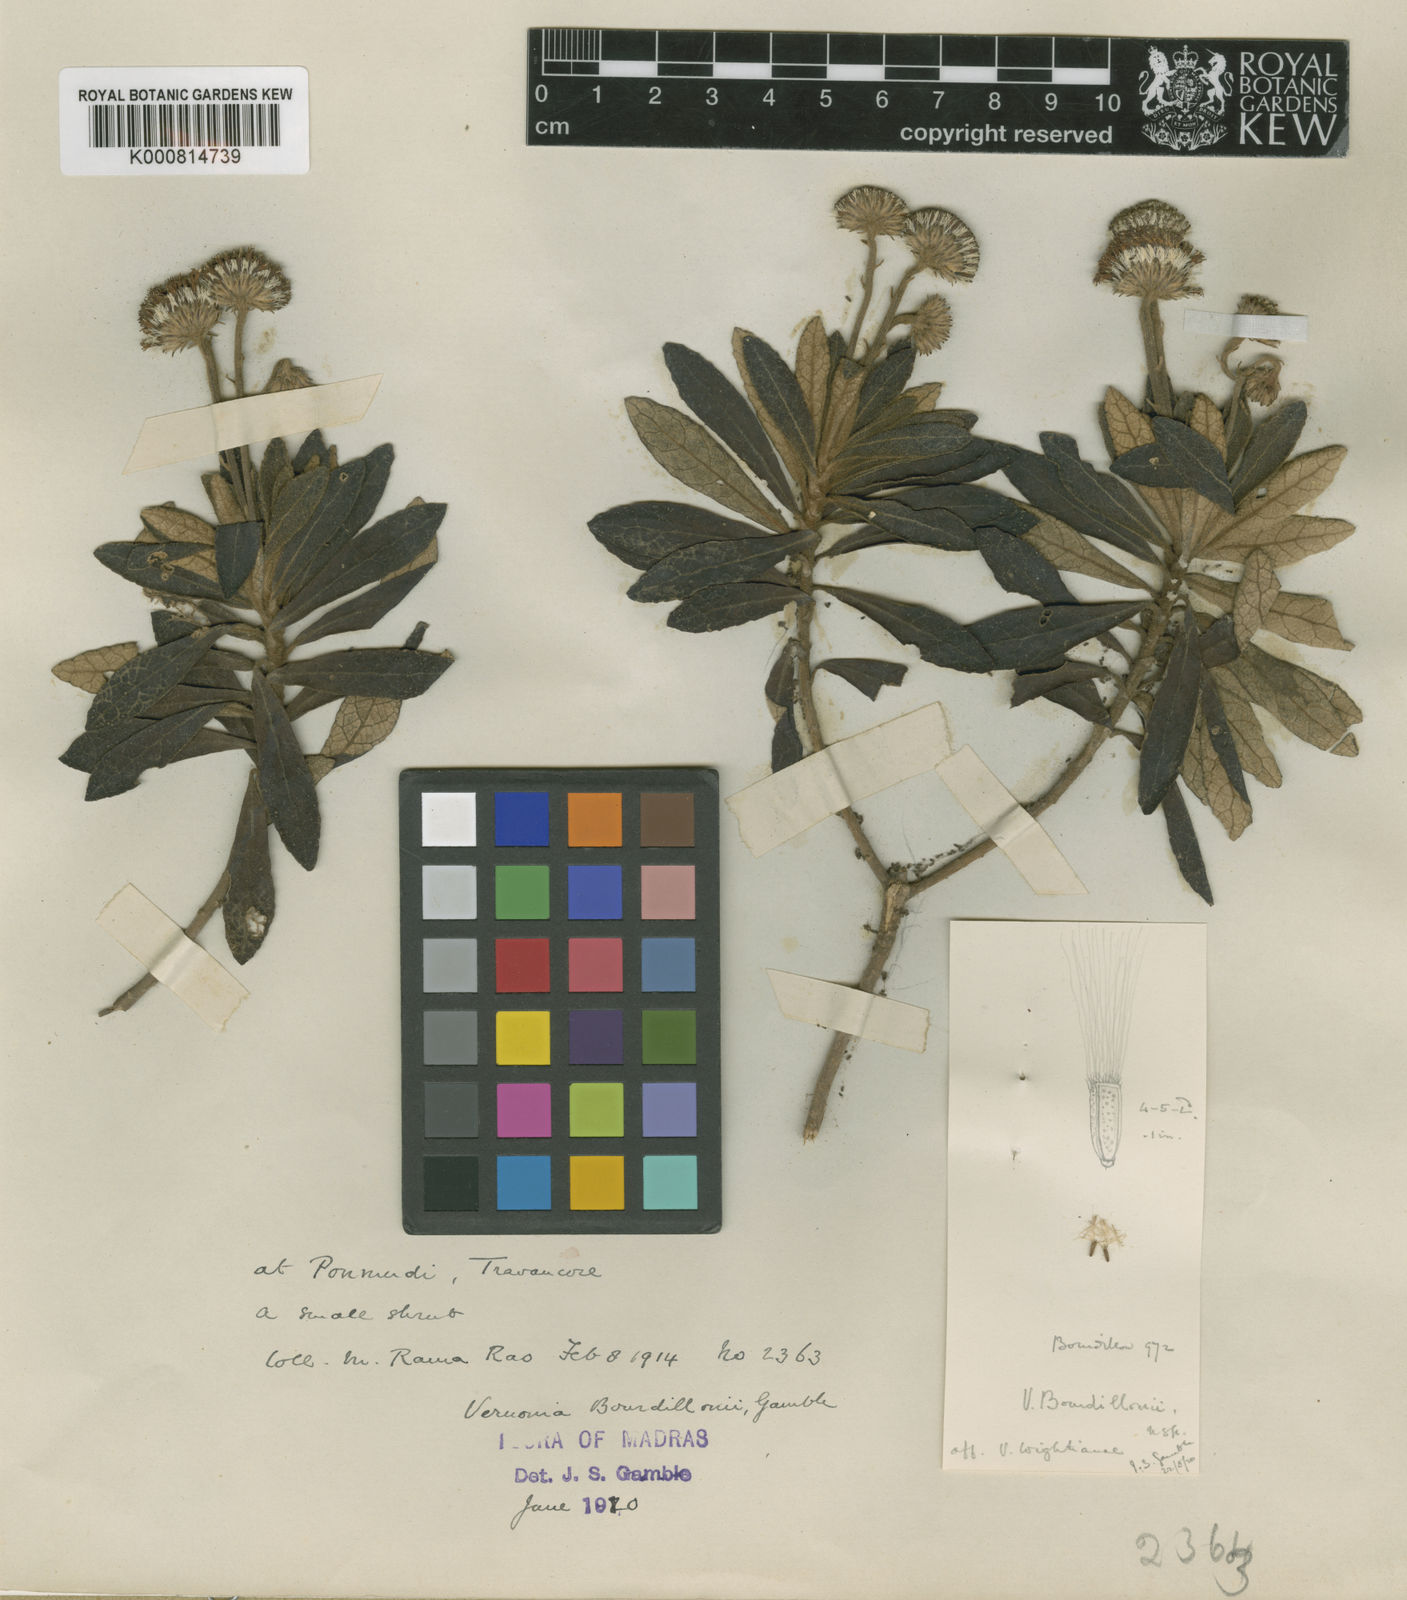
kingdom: Plantae
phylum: Tracheophyta
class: Magnoliopsida
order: Asterales
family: Asteraceae
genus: Uniyala
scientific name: Uniyala bourdillonii
